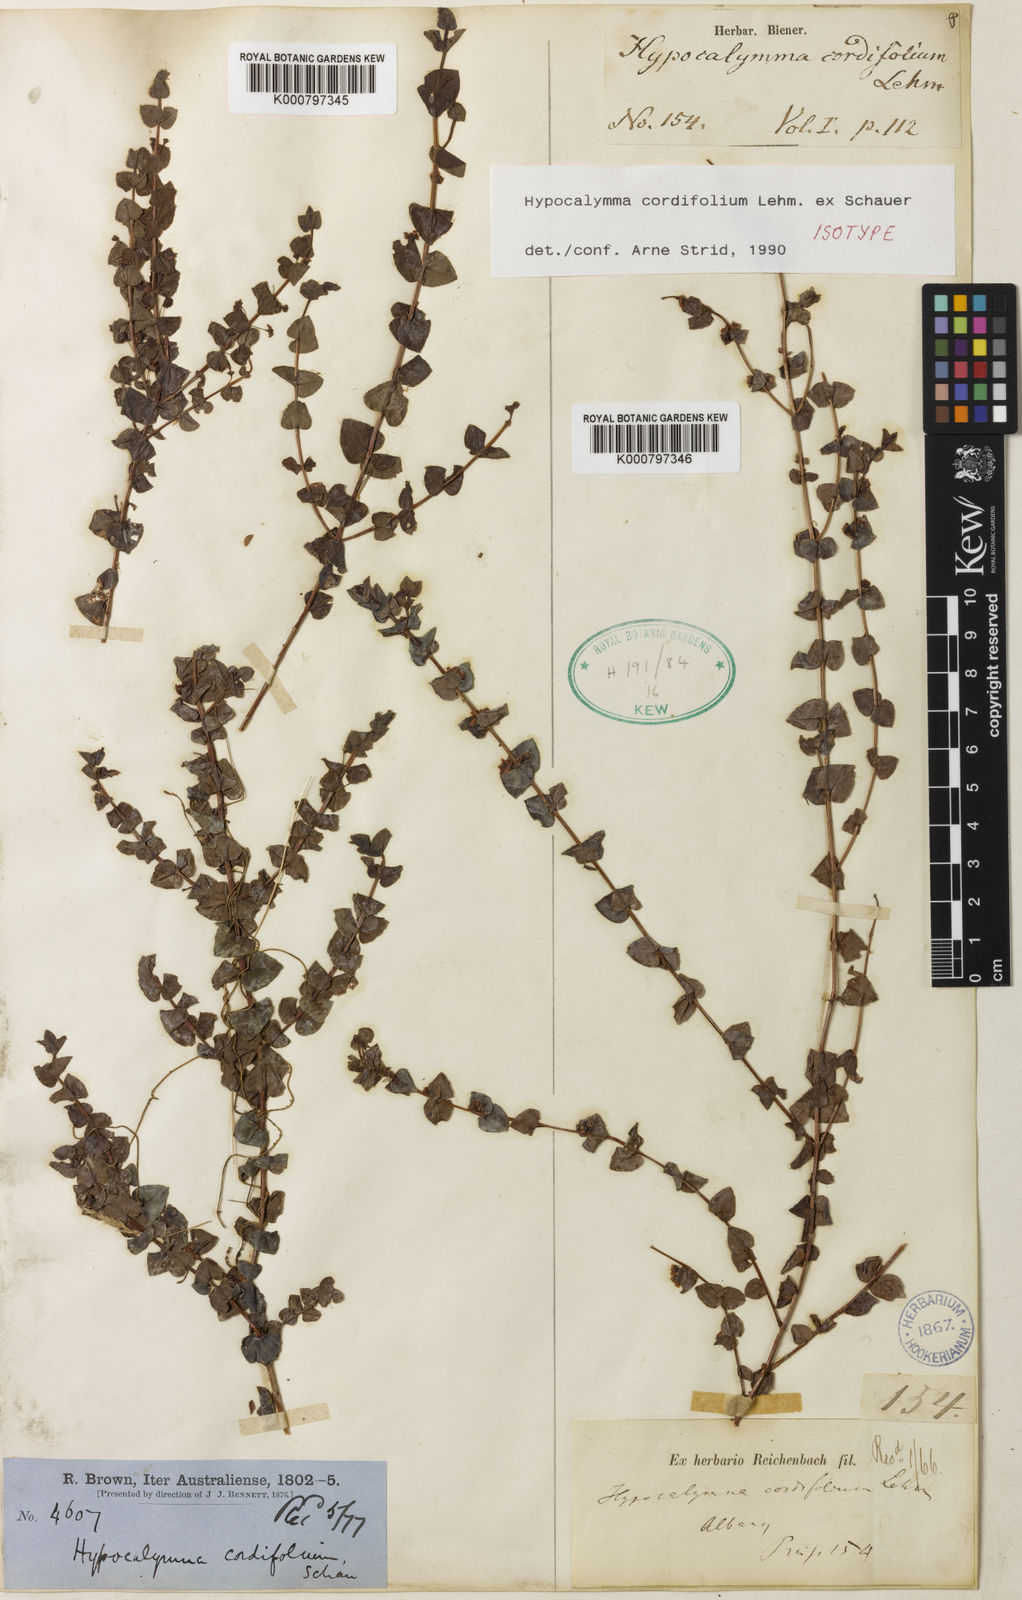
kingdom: Plantae
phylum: Tracheophyta
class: Magnoliopsida
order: Myrtales
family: Myrtaceae
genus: Hypocalymma
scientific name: Hypocalymma cordifolium
